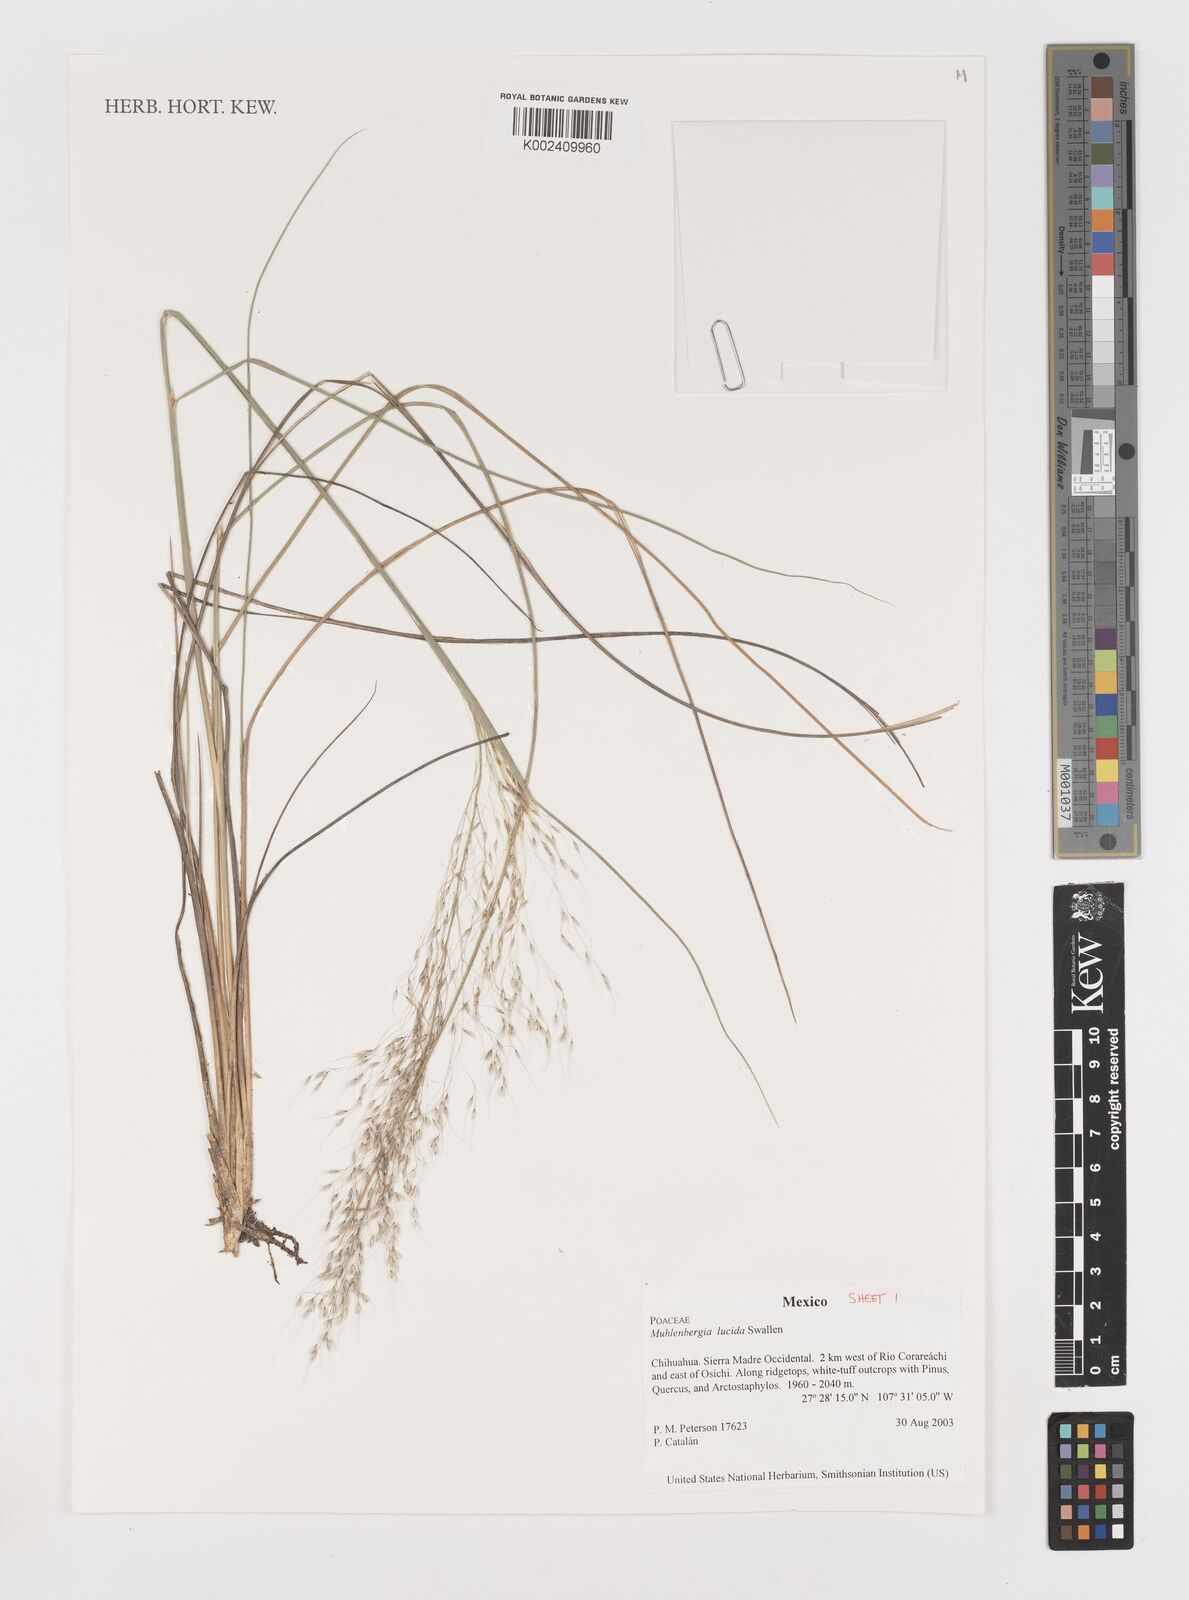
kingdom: Plantae
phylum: Tracheophyta
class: Liliopsida
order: Poales
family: Poaceae
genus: Muhlenbergia
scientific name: Muhlenbergia lucida
